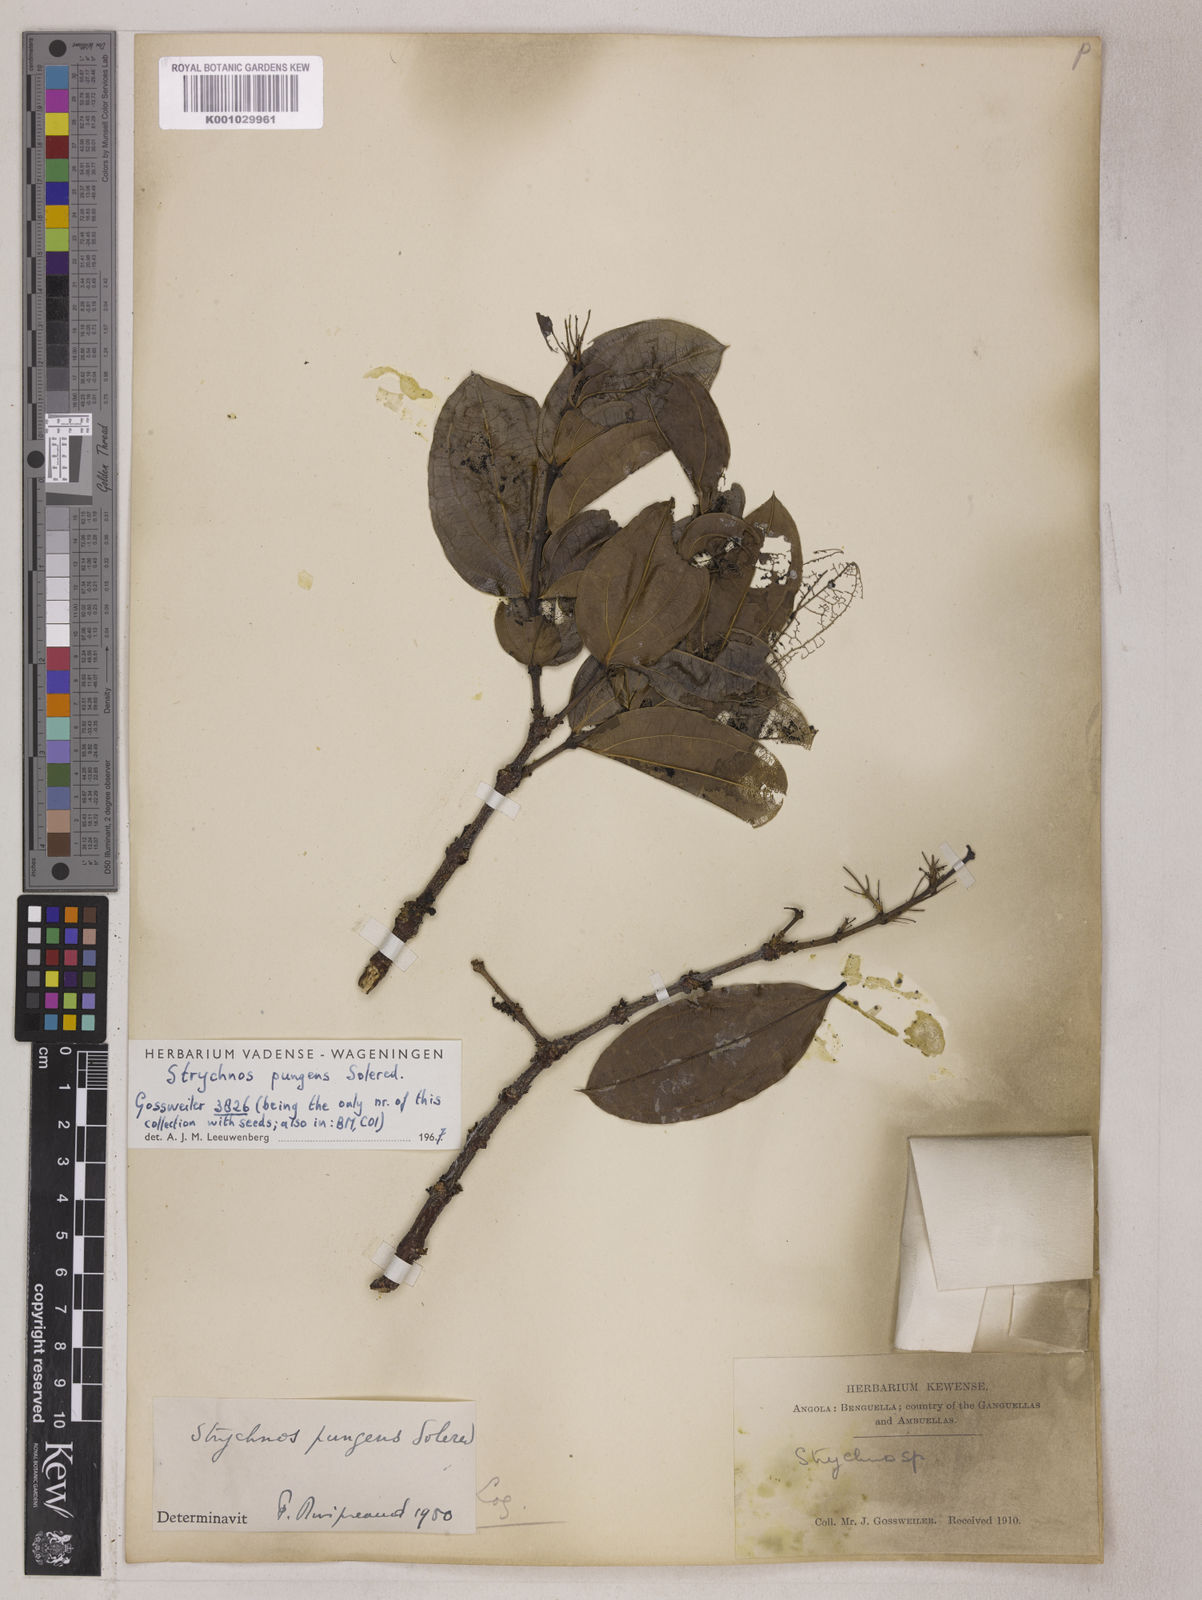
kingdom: Plantae
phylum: Tracheophyta
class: Magnoliopsida
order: Gentianales
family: Loganiaceae
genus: Strychnos
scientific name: Strychnos pungens
